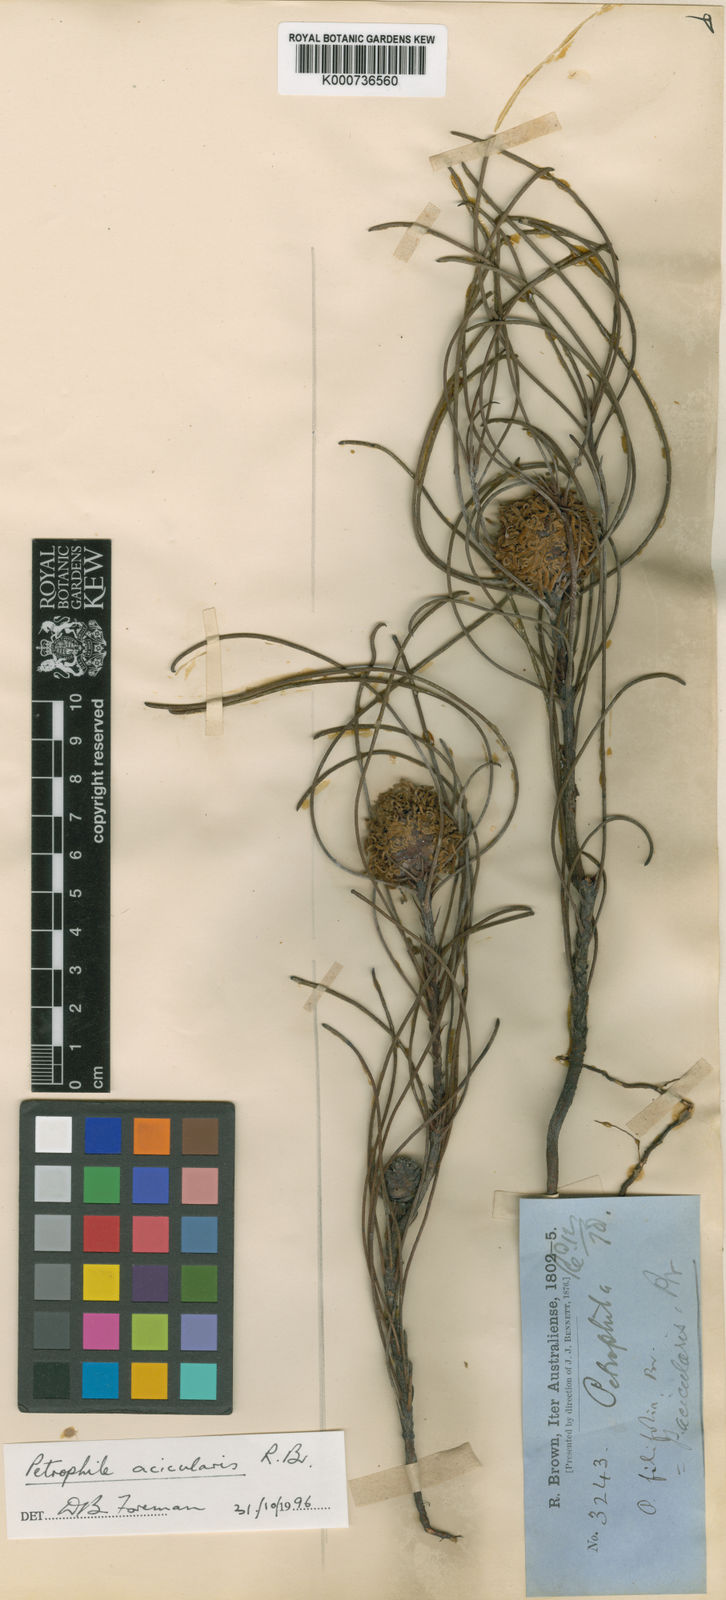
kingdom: Plantae
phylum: Tracheophyta
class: Magnoliopsida
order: Proteales
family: Proteaceae
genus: Petrophile
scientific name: Petrophile acicularis
